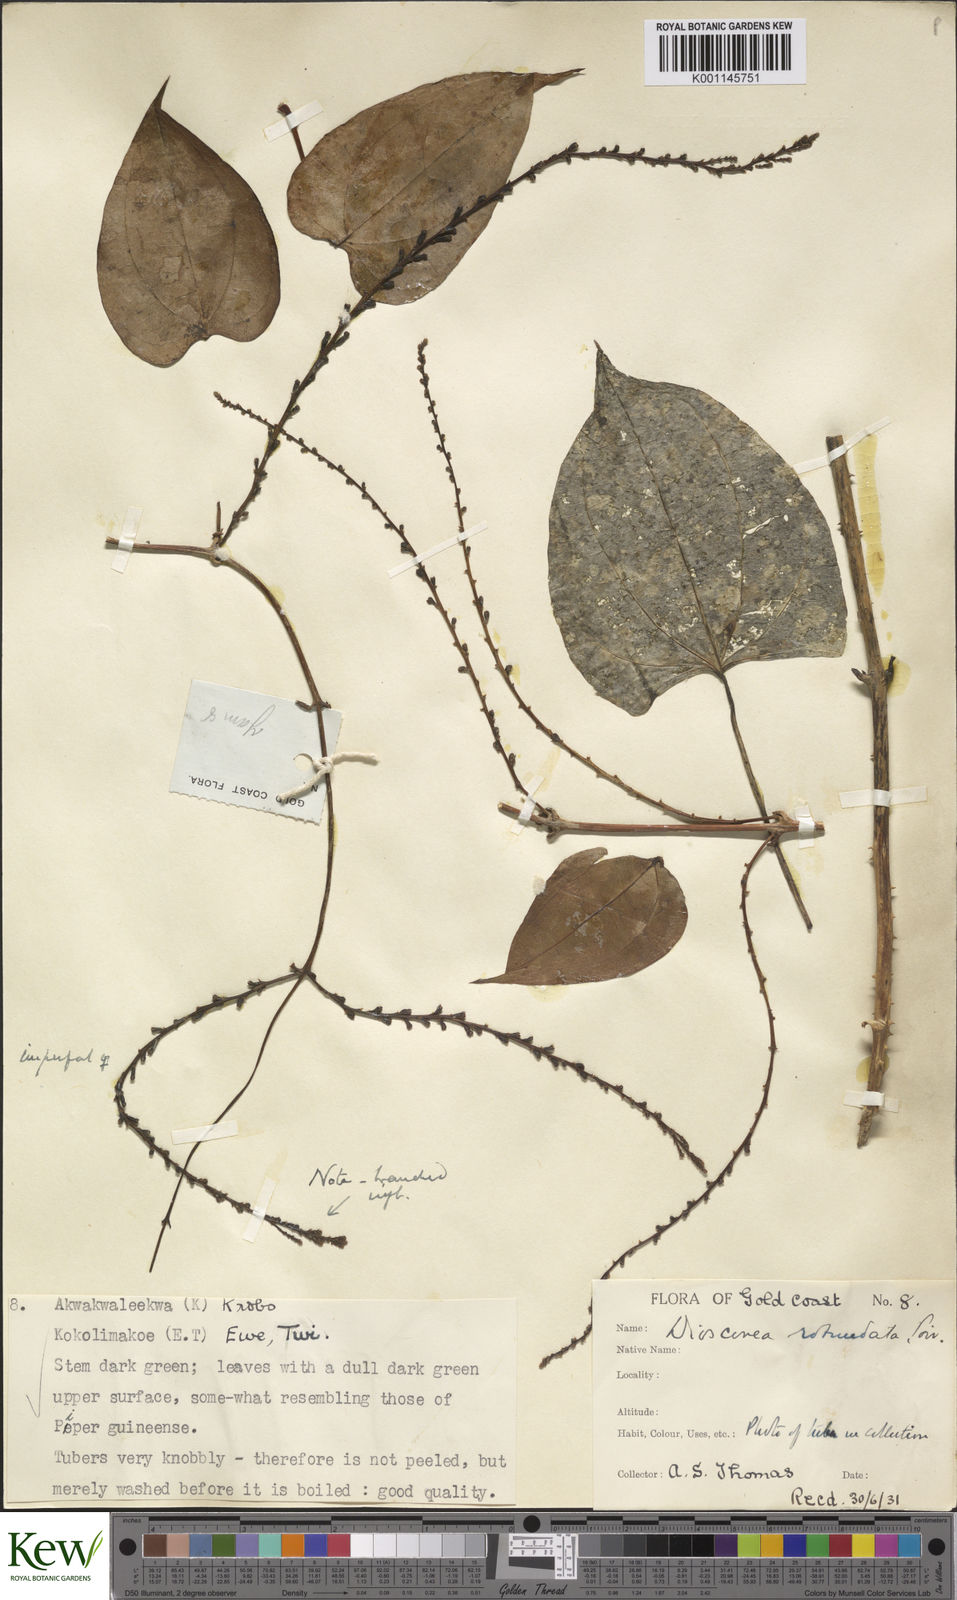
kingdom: Plantae
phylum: Tracheophyta
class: Liliopsida
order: Dioscoreales
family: Dioscoreaceae
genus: Dioscorea
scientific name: Dioscorea cayenensis
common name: Attoto yam
